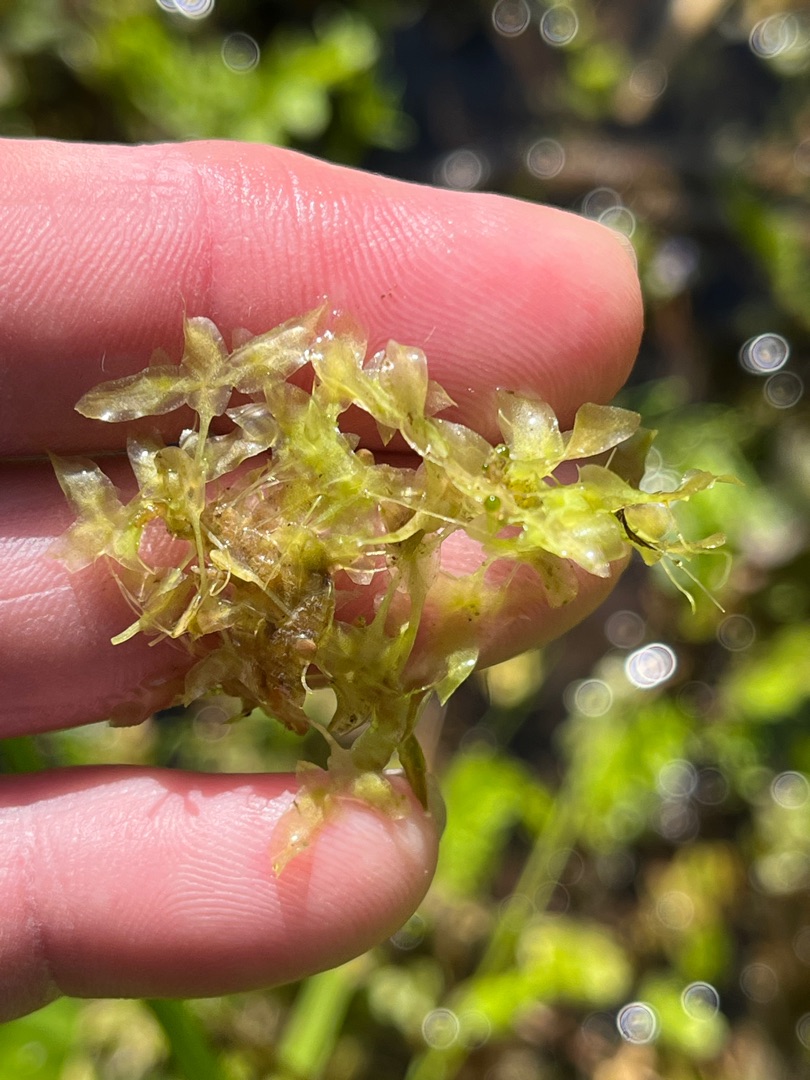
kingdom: Plantae
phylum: Tracheophyta
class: Liliopsida
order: Alismatales
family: Araceae
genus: Lemna
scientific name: Lemna trisulca
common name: Kors-andemad
